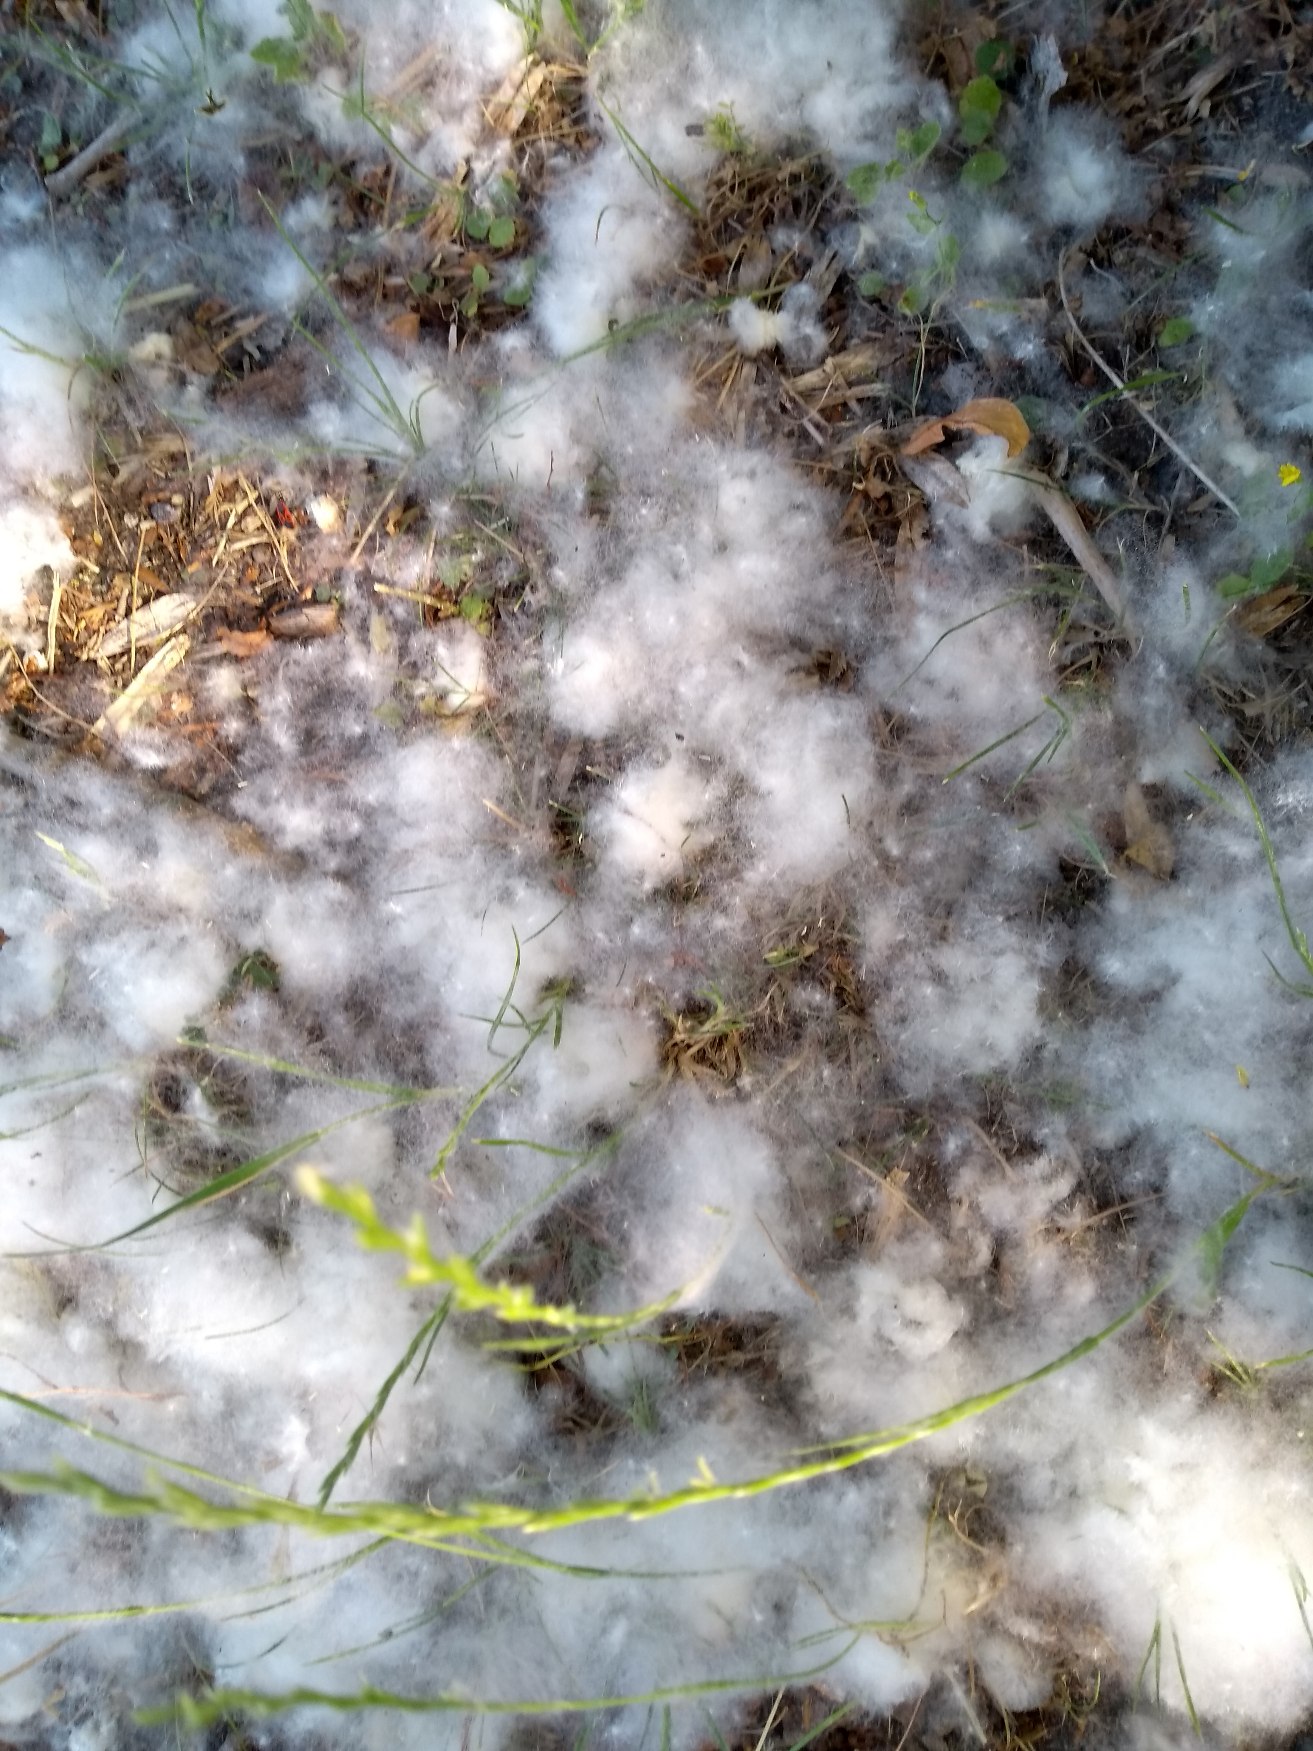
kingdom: Plantae
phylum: Tracheophyta
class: Magnoliopsida
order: Malpighiales
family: Salicaceae
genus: Populus
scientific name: Populus lasiocarpa
